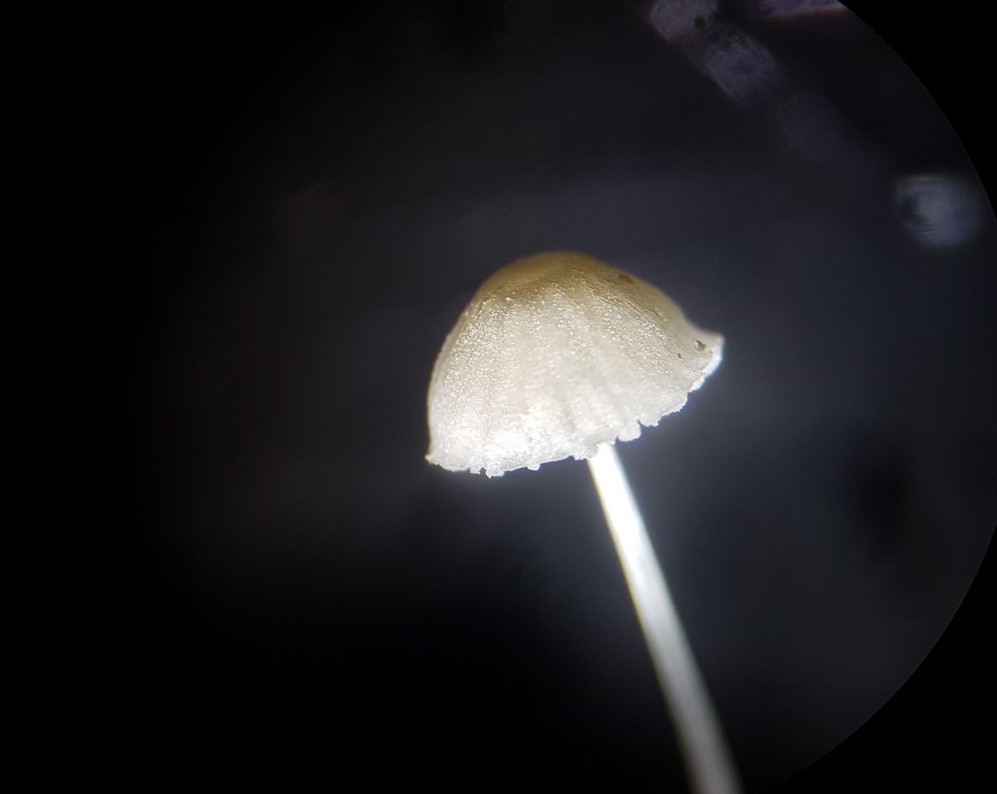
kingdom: Fungi
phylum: Basidiomycota
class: Agaricomycetes
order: Agaricales
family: Mycenaceae
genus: Mycena
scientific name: Mycena tenerrima
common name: pudret huesvamp
